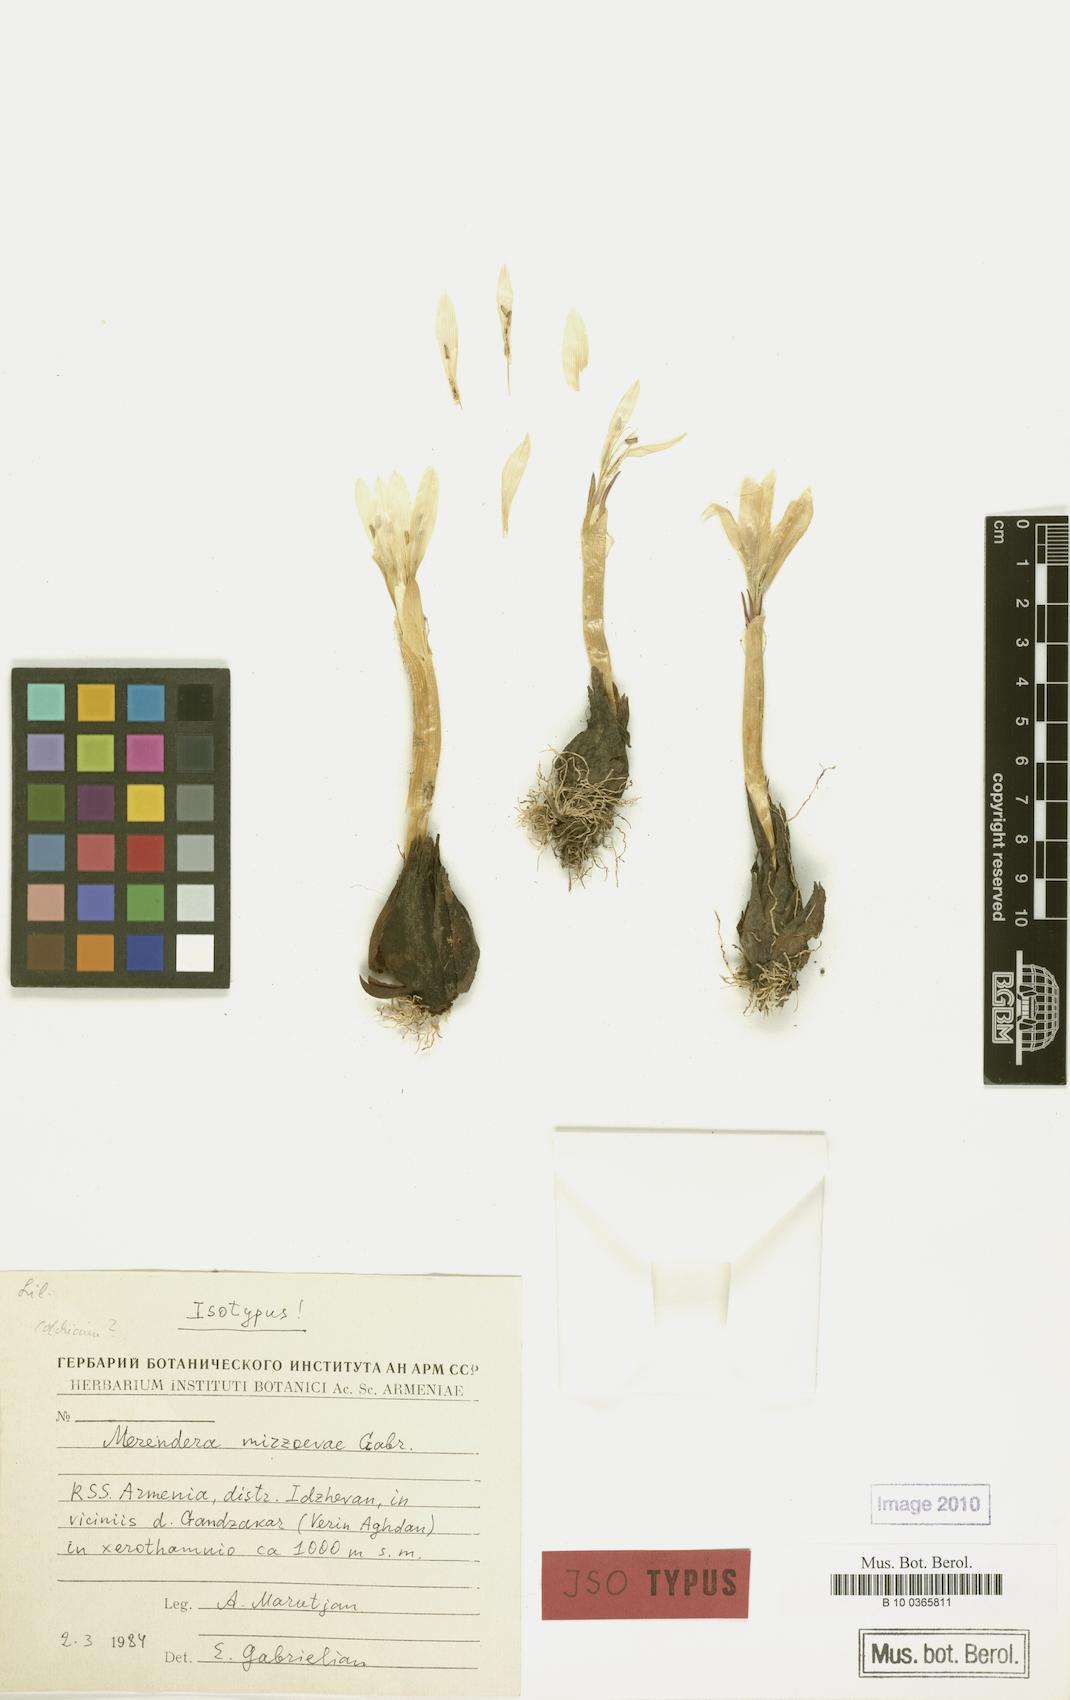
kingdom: Plantae
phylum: Tracheophyta
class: Liliopsida
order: Liliales
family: Colchicaceae
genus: Colchicum
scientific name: Colchicum trigynum
